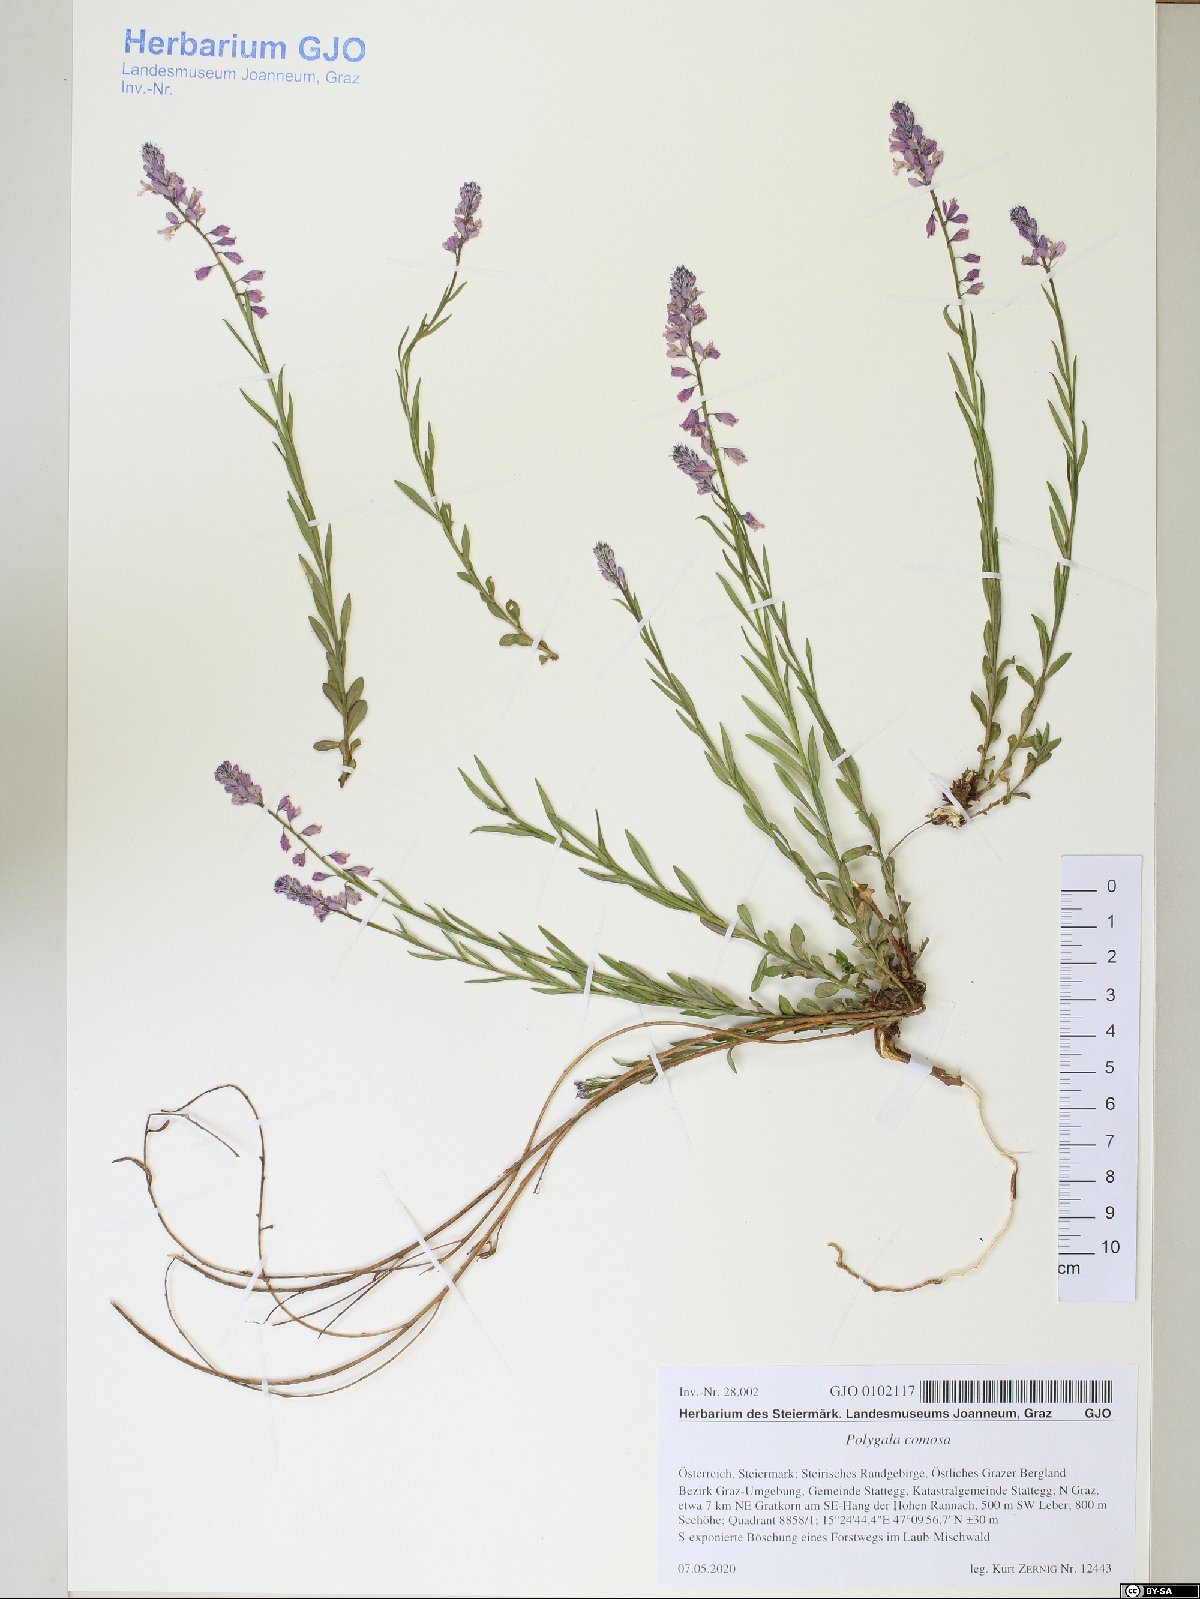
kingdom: Plantae
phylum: Tracheophyta
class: Magnoliopsida
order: Fabales
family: Polygalaceae
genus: Polygala
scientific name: Polygala comosa
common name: Tufted milkwort
